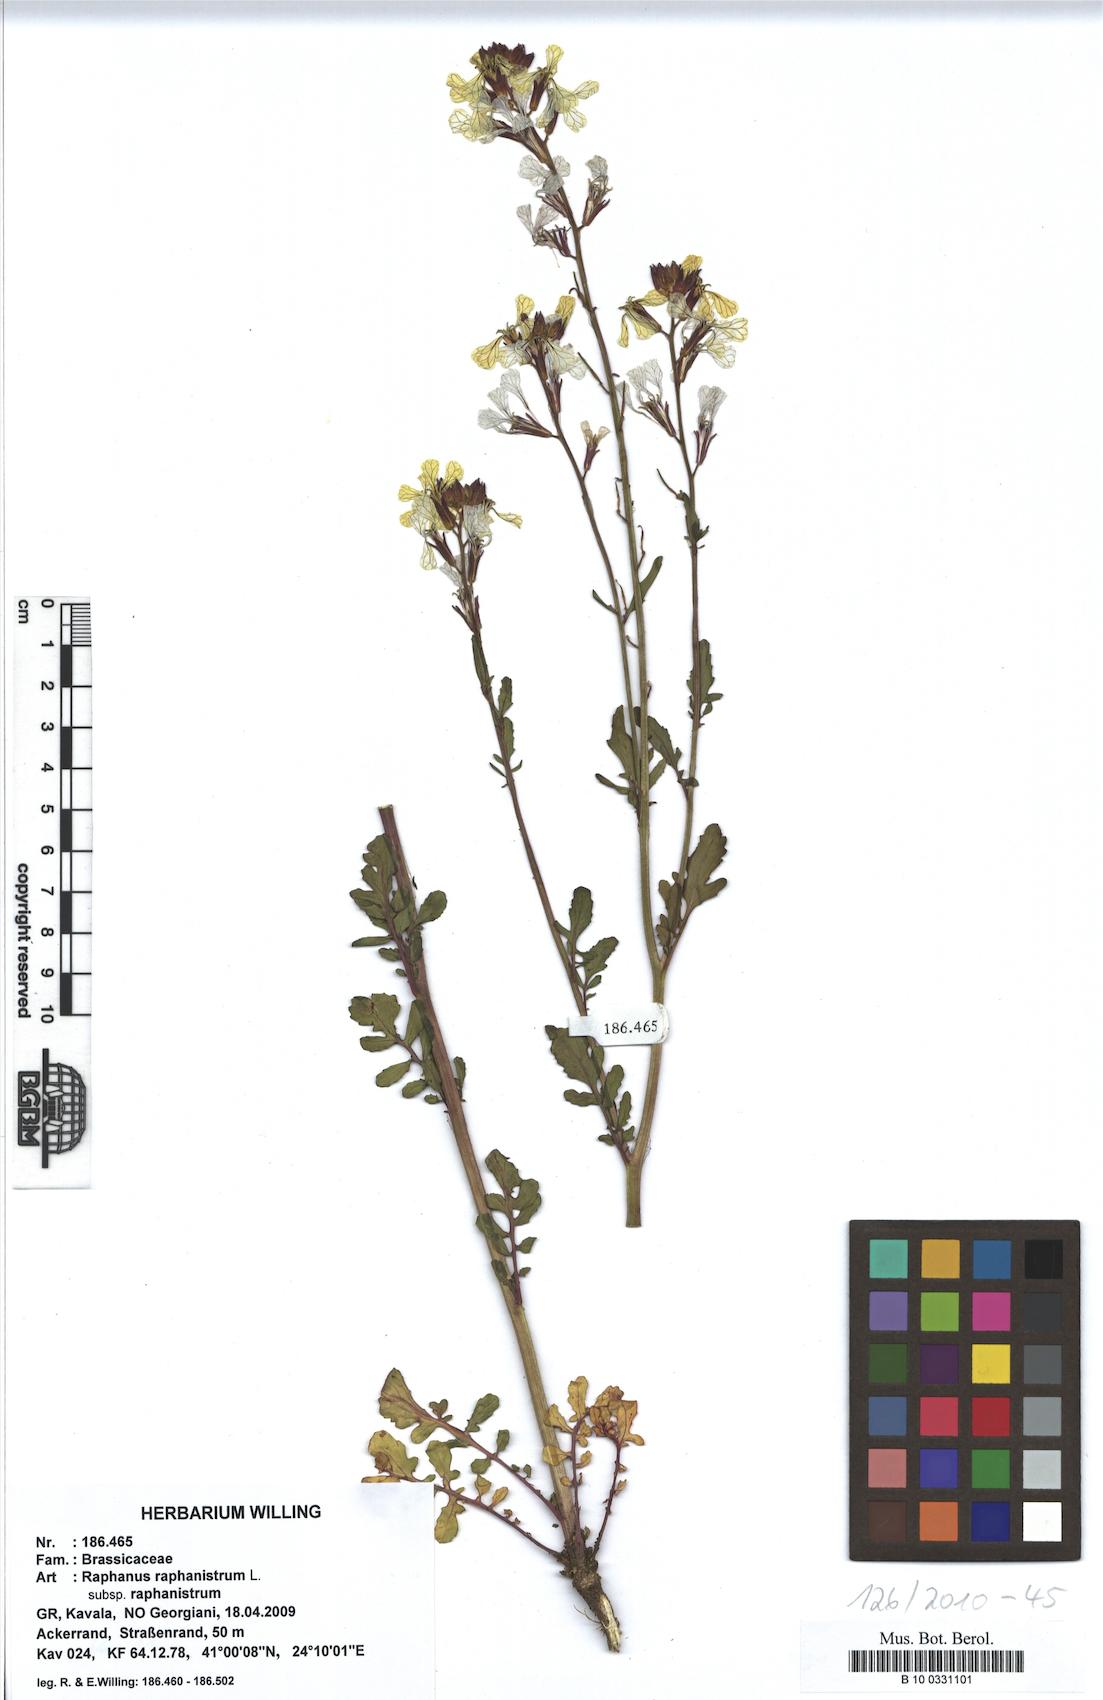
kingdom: Plantae
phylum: Tracheophyta
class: Magnoliopsida
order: Brassicales
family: Brassicaceae
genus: Raphanus
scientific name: Raphanus raphanistrum
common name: Wild radish
